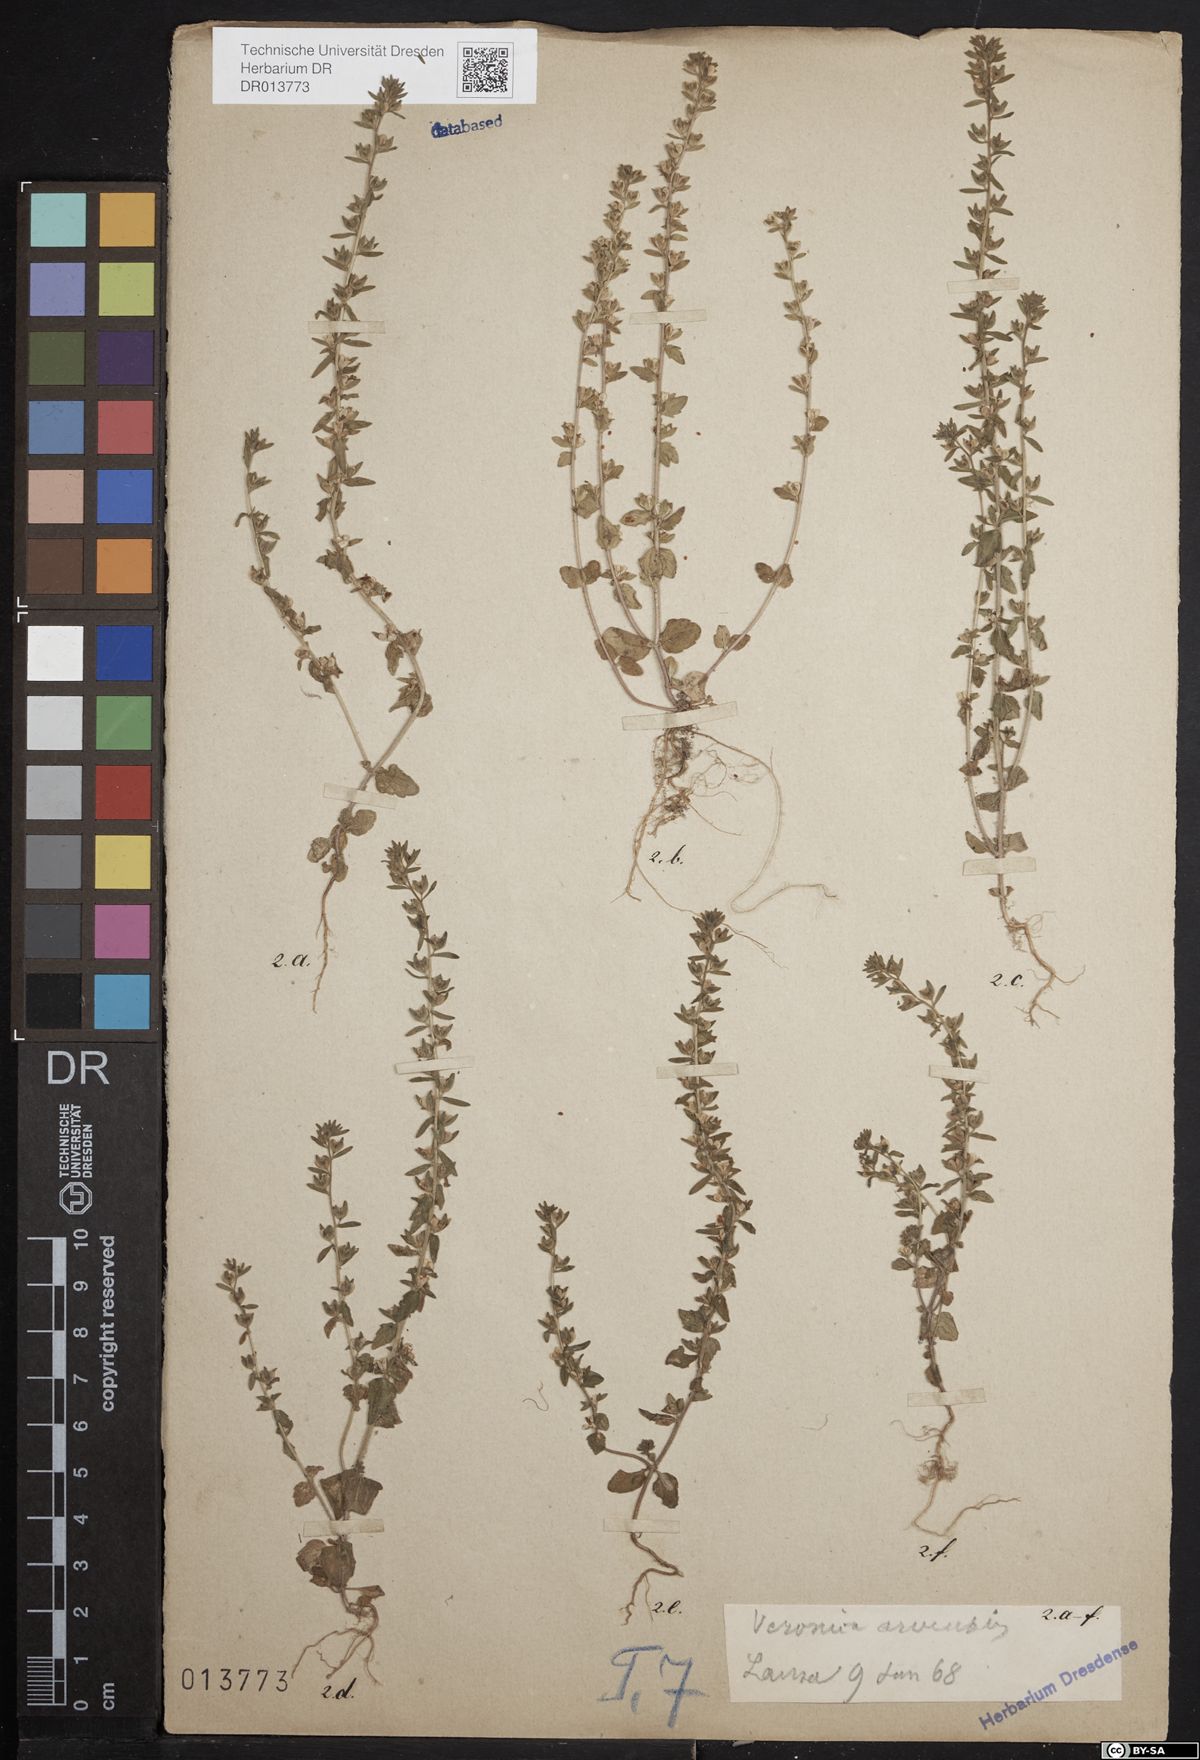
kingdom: Plantae
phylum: Tracheophyta
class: Magnoliopsida
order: Lamiales
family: Plantaginaceae
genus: Veronica
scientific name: Veronica arvensis
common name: Corn speedwell
